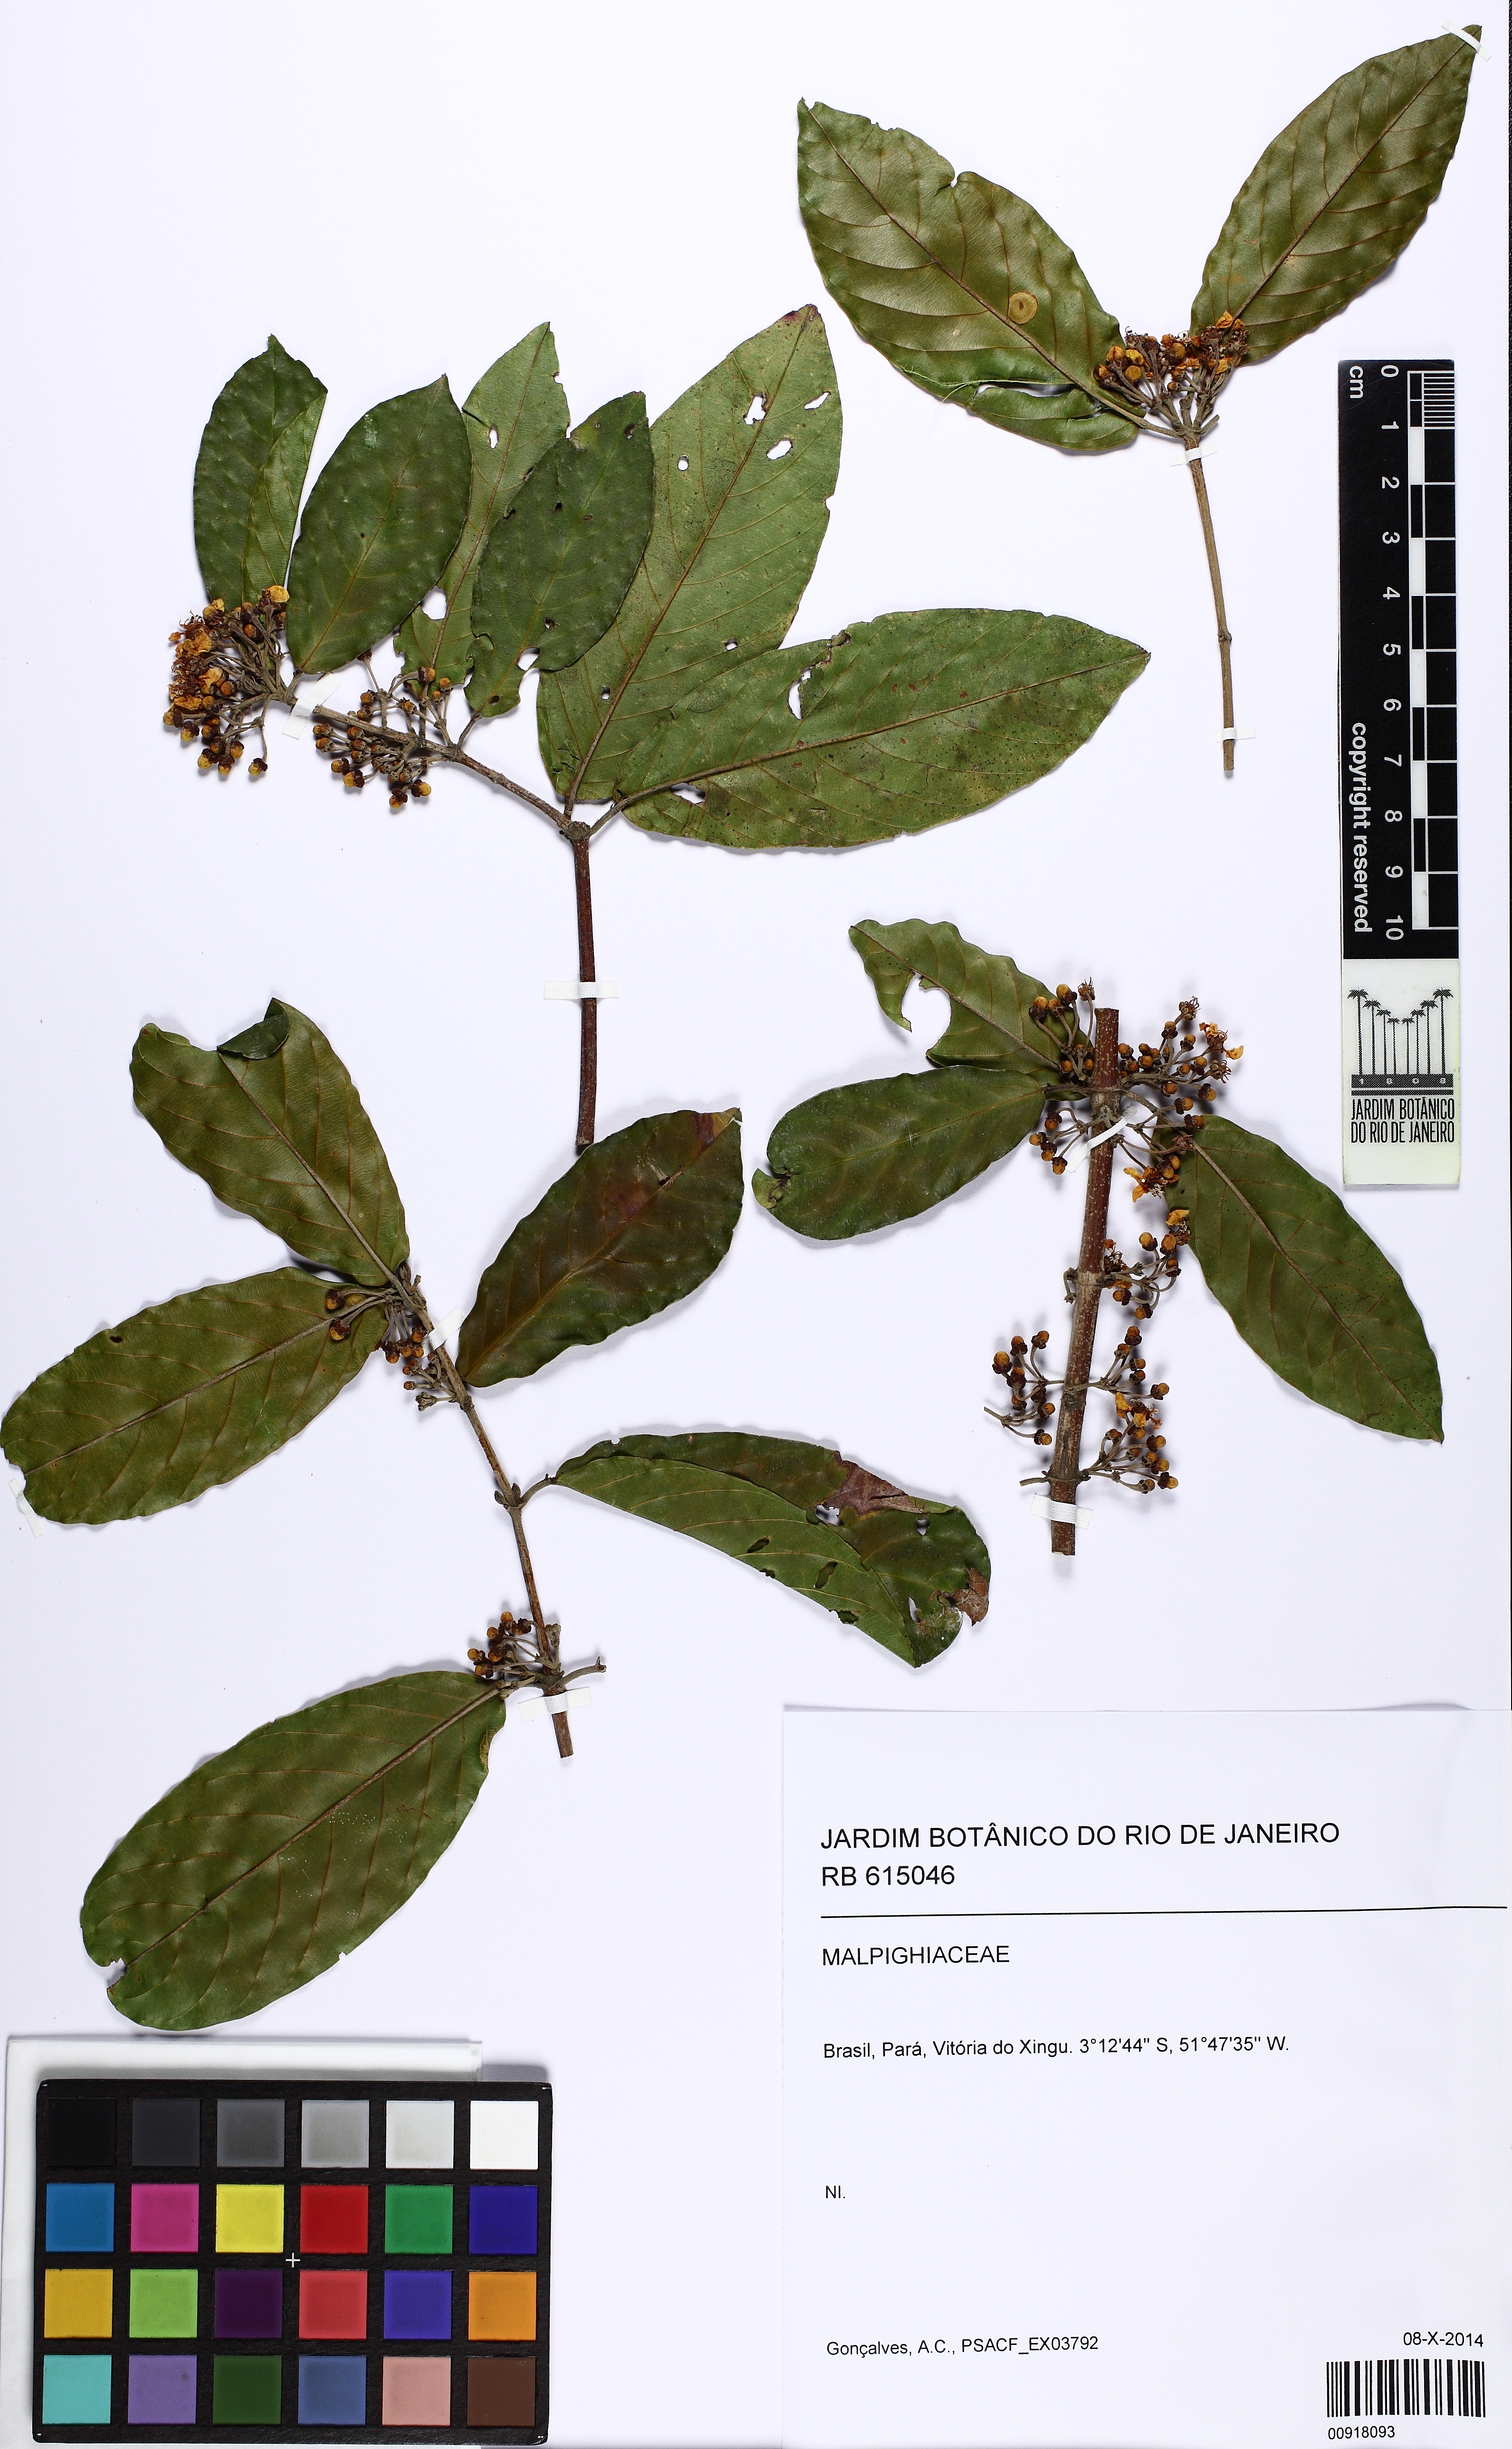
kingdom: Plantae
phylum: Tracheophyta
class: Magnoliopsida
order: Malpighiales
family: Malpighiaceae
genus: Hiraea
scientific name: Hiraea
